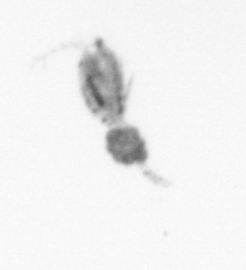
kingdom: Animalia
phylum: Arthropoda
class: Copepoda
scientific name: Copepoda
